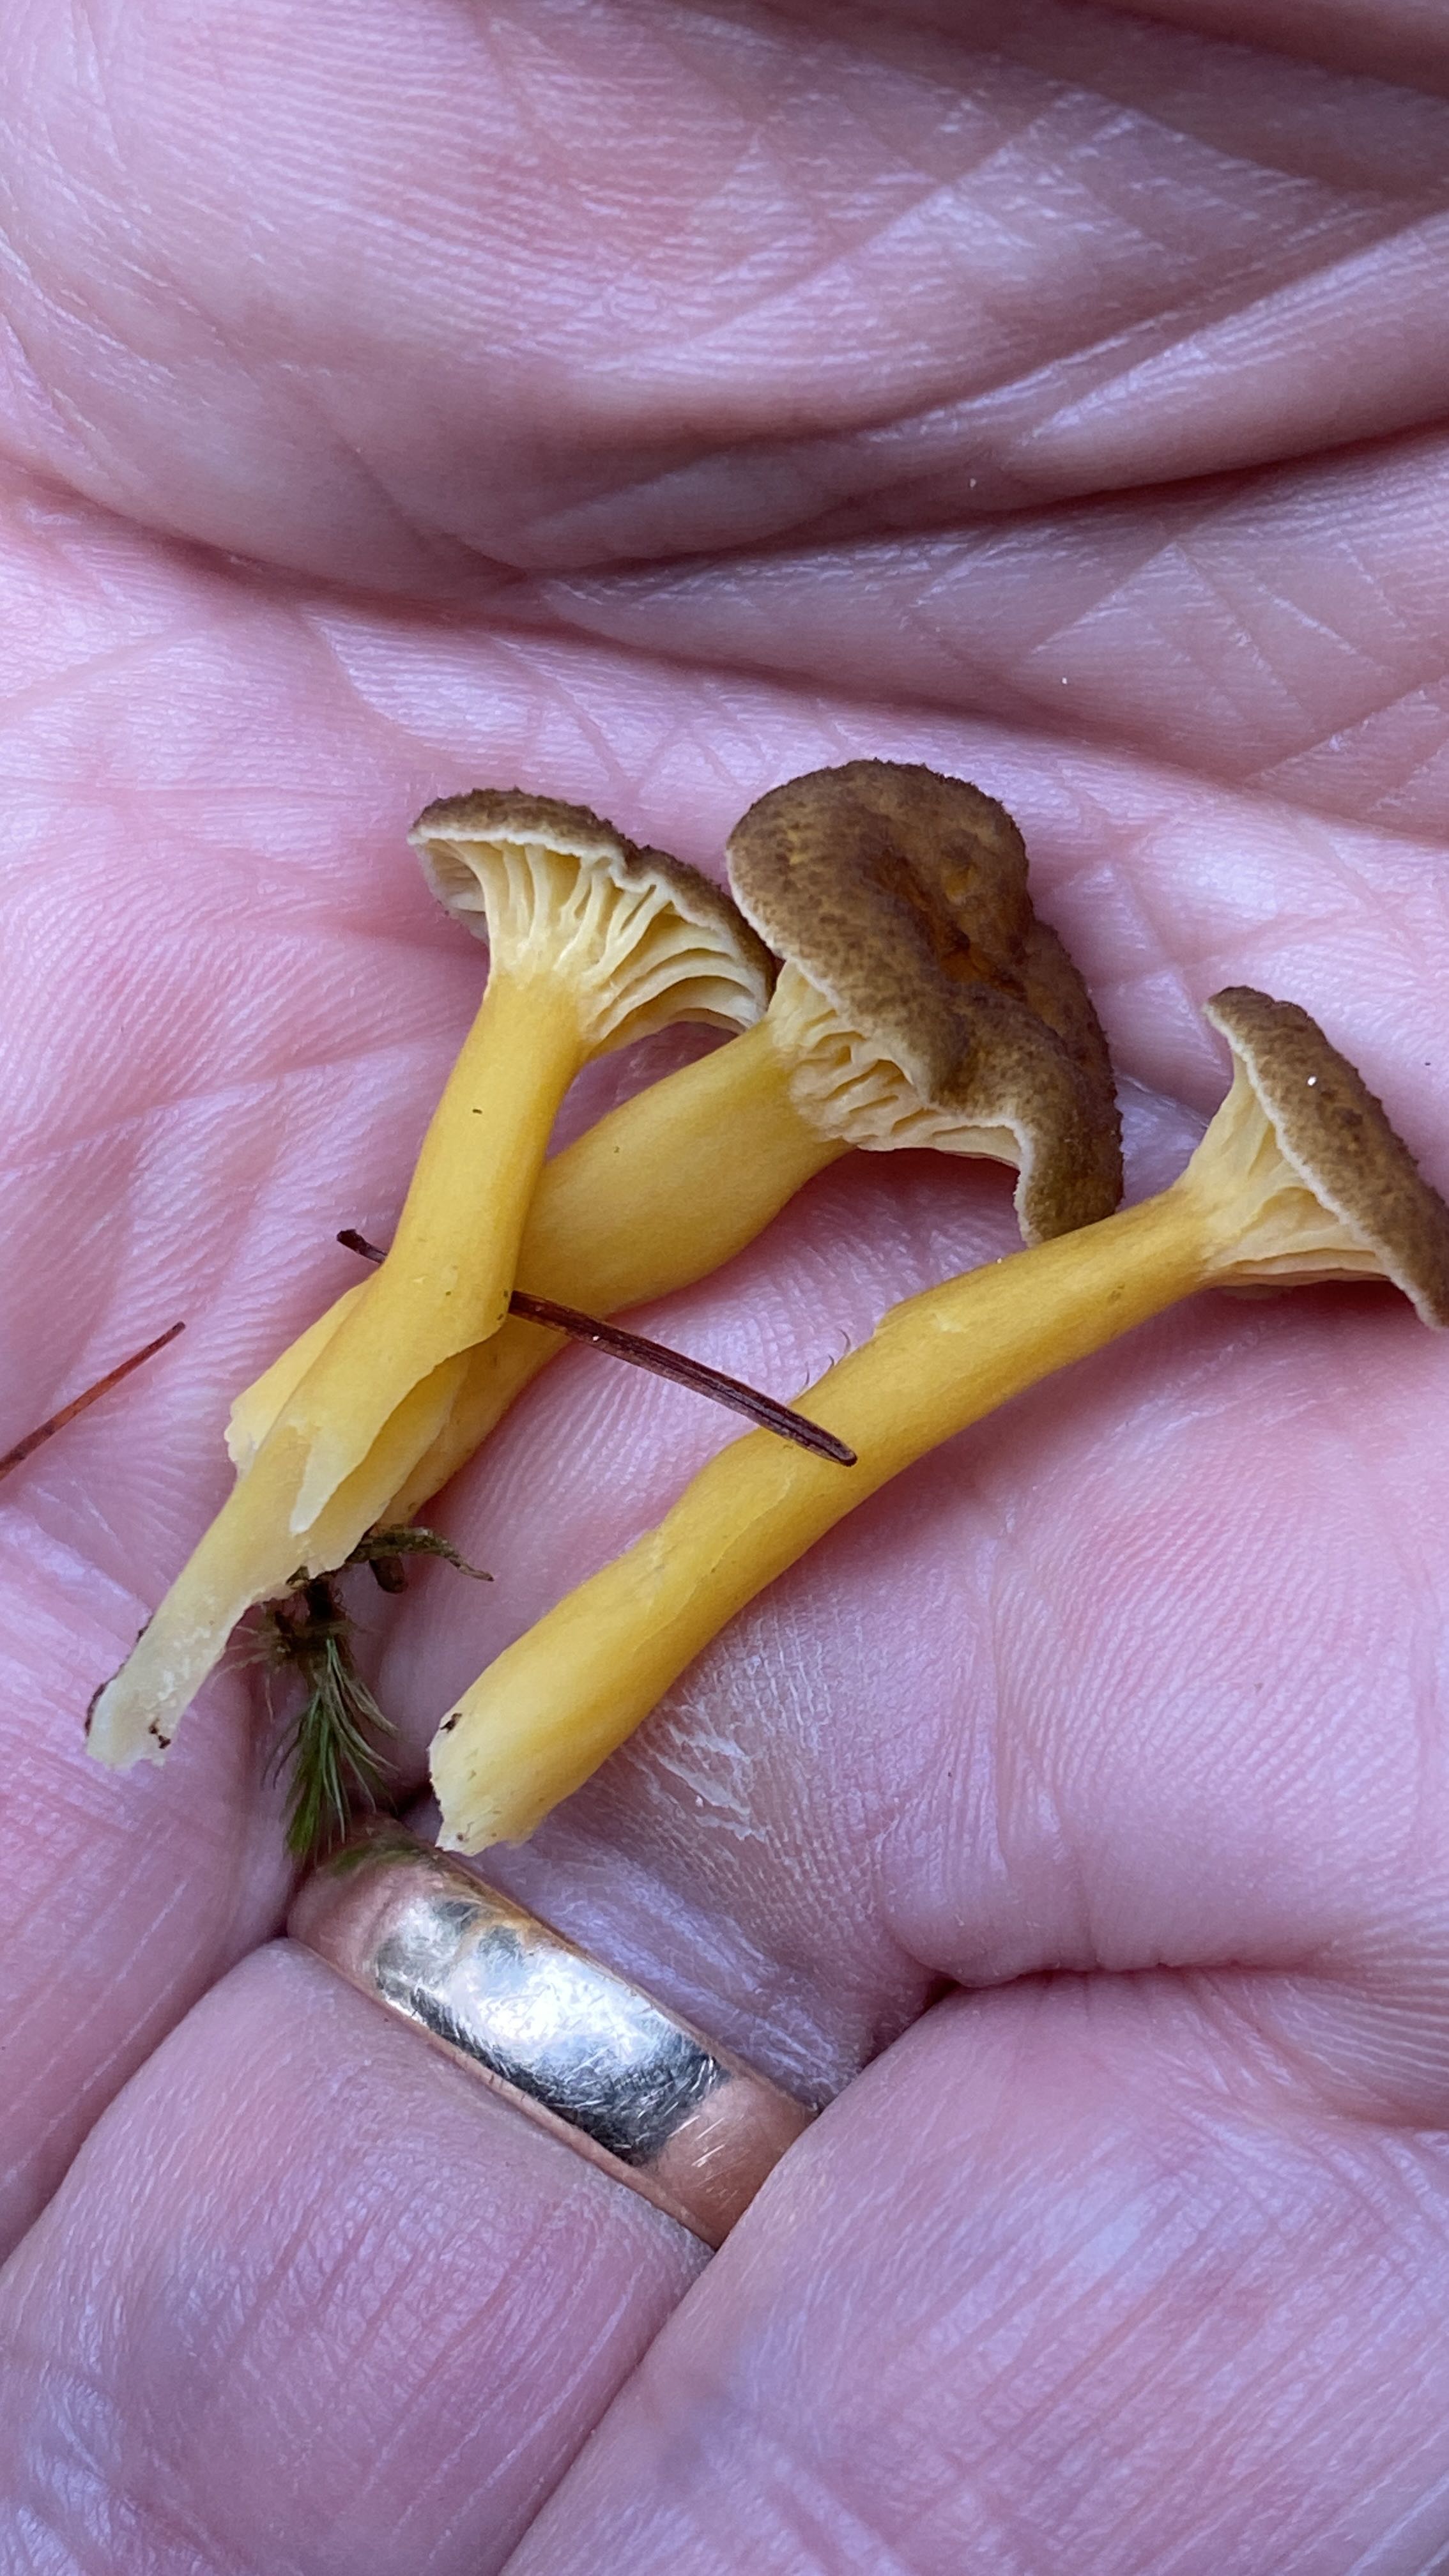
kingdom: Fungi
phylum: Basidiomycota
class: Agaricomycetes
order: Cantharellales
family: Hydnaceae
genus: Craterellus
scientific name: Craterellus tubaeformis
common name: tragt-kantarel
